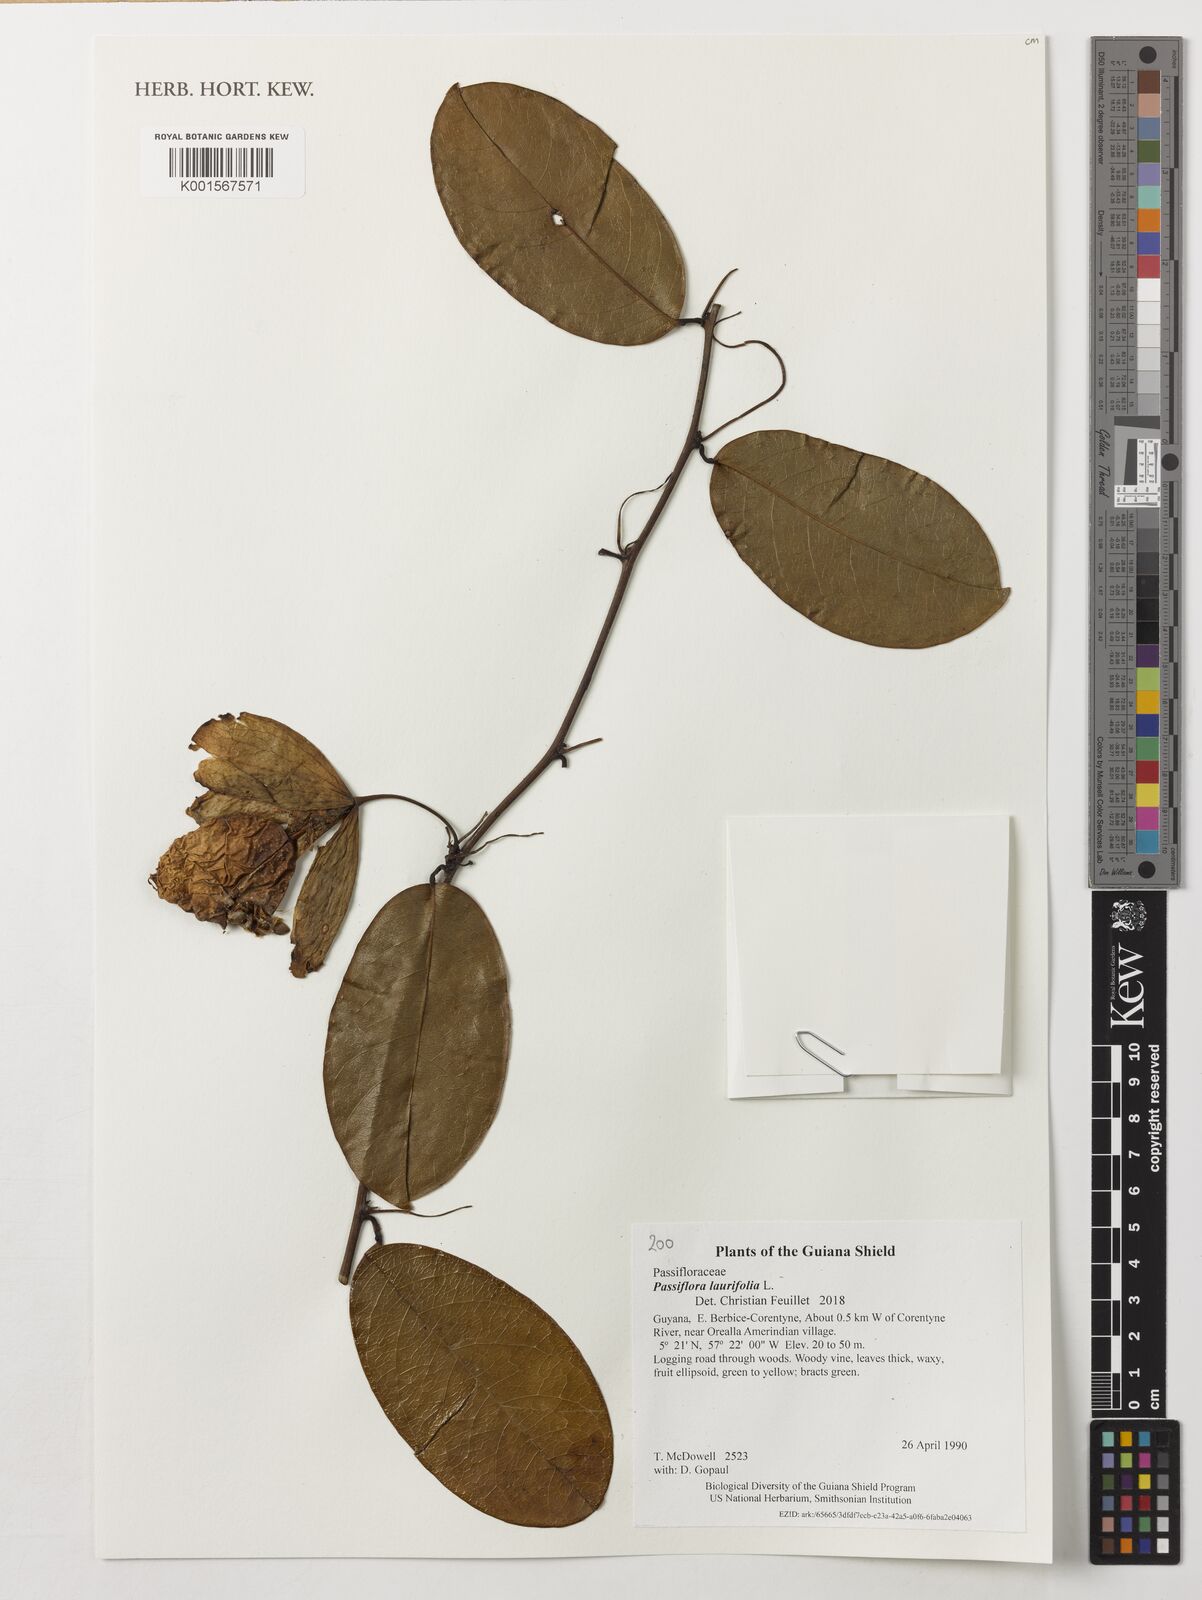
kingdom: Plantae
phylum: Tracheophyta
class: Magnoliopsida
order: Malpighiales
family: Passifloraceae
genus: Passiflora
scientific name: Passiflora laurifolia
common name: Bell apple
